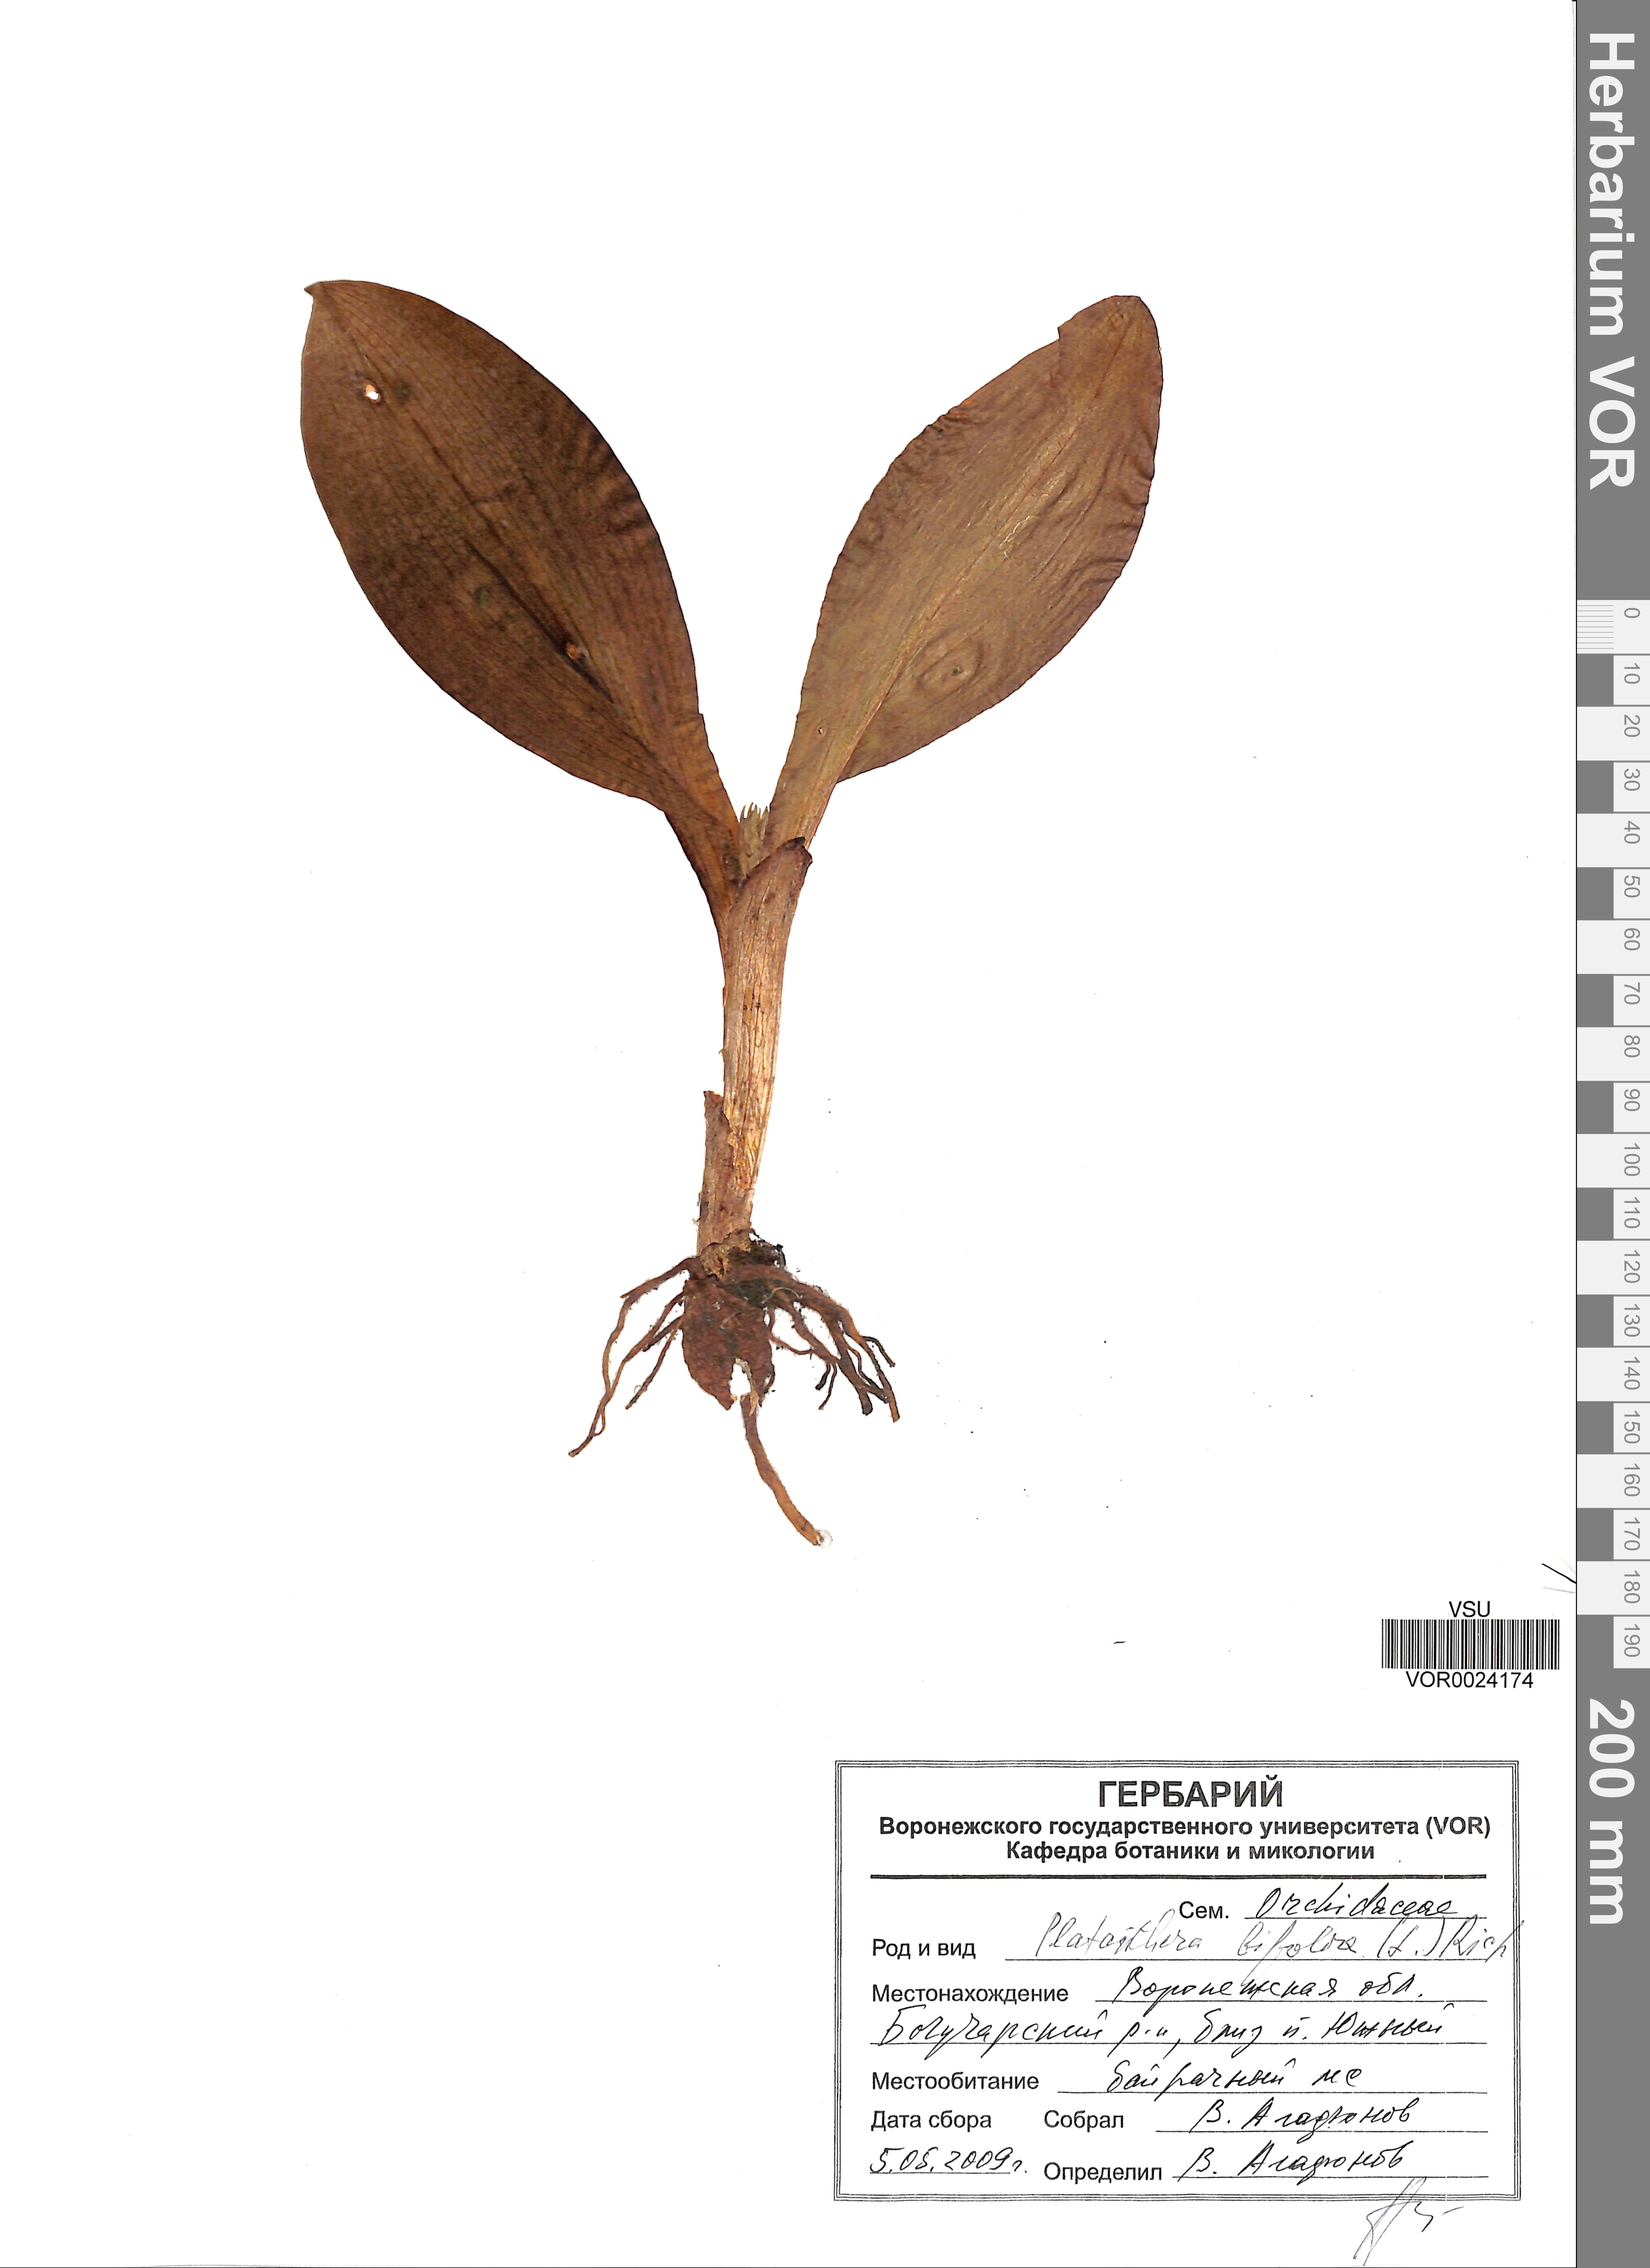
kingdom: Plantae
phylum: Tracheophyta
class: Liliopsida
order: Asparagales
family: Orchidaceae
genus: Platanthera
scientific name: Platanthera bifolia
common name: Lesser butterfly-orchid
